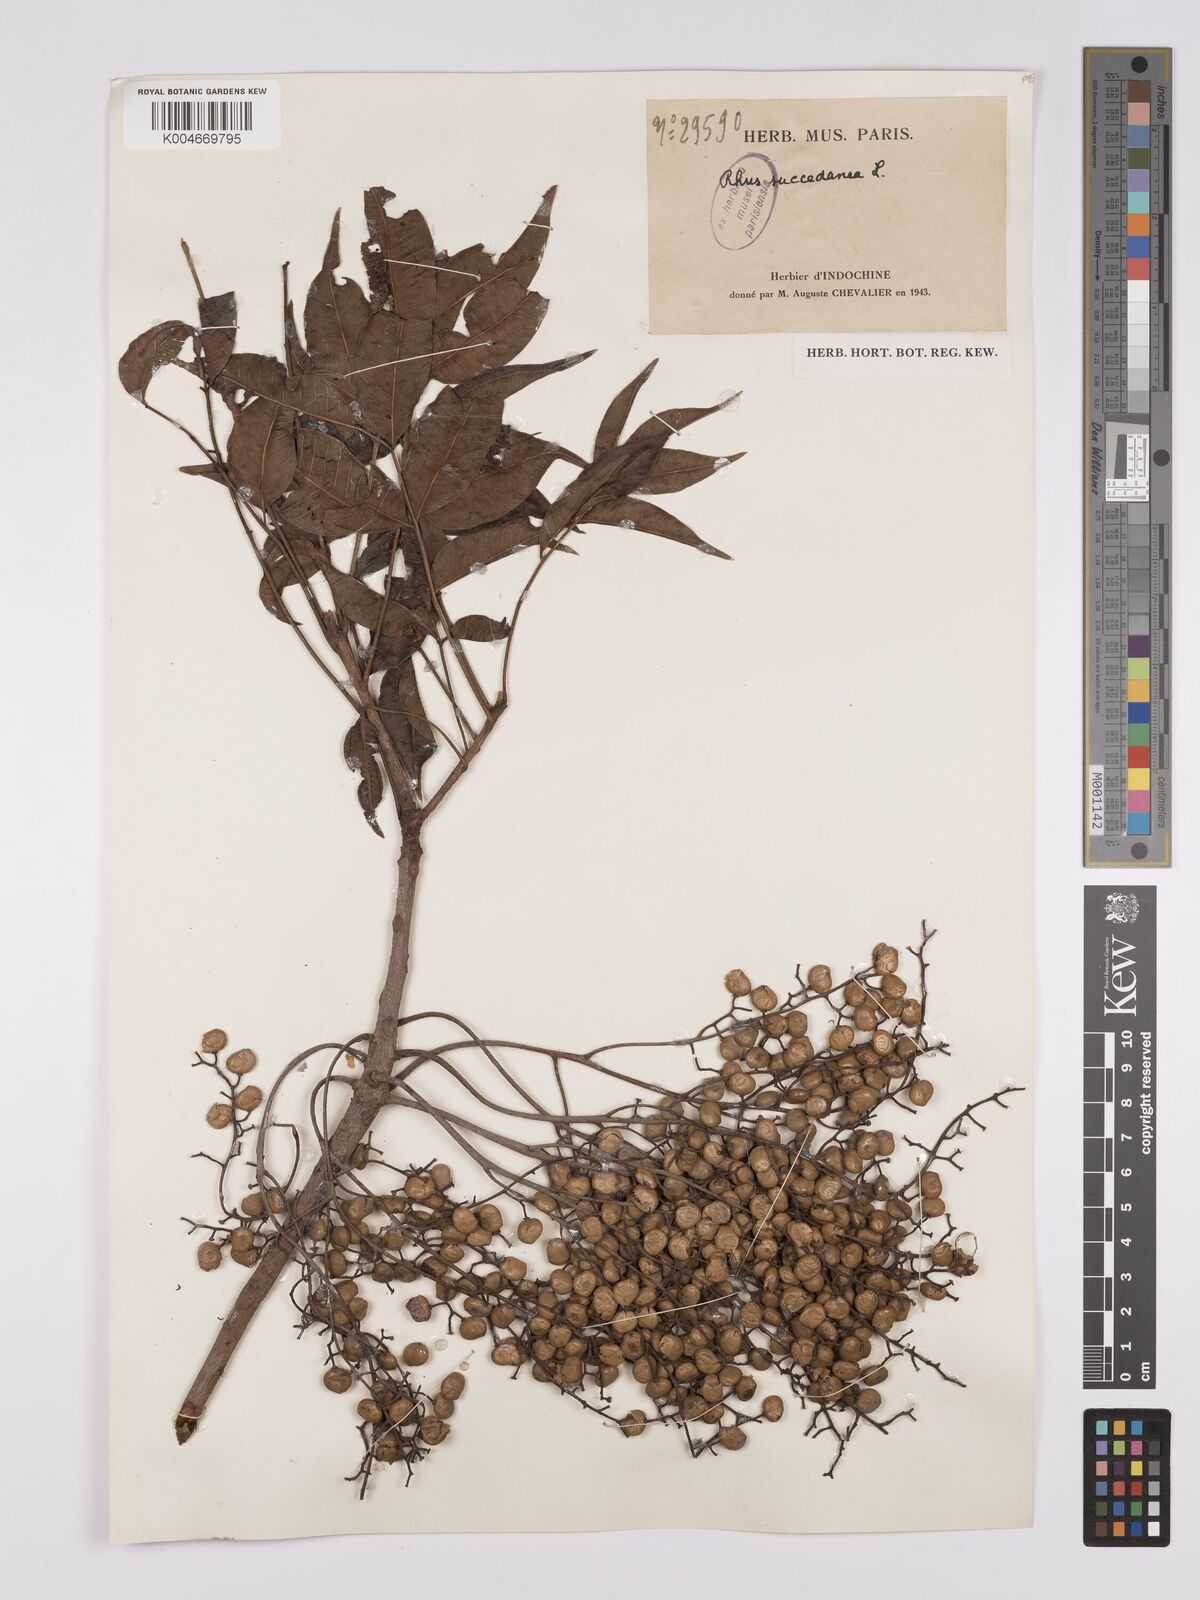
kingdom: Plantae
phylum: Tracheophyta
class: Magnoliopsida
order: Sapindales
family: Anacardiaceae
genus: Toxicodendron
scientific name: Toxicodendron succedaneum
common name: Wax tree
